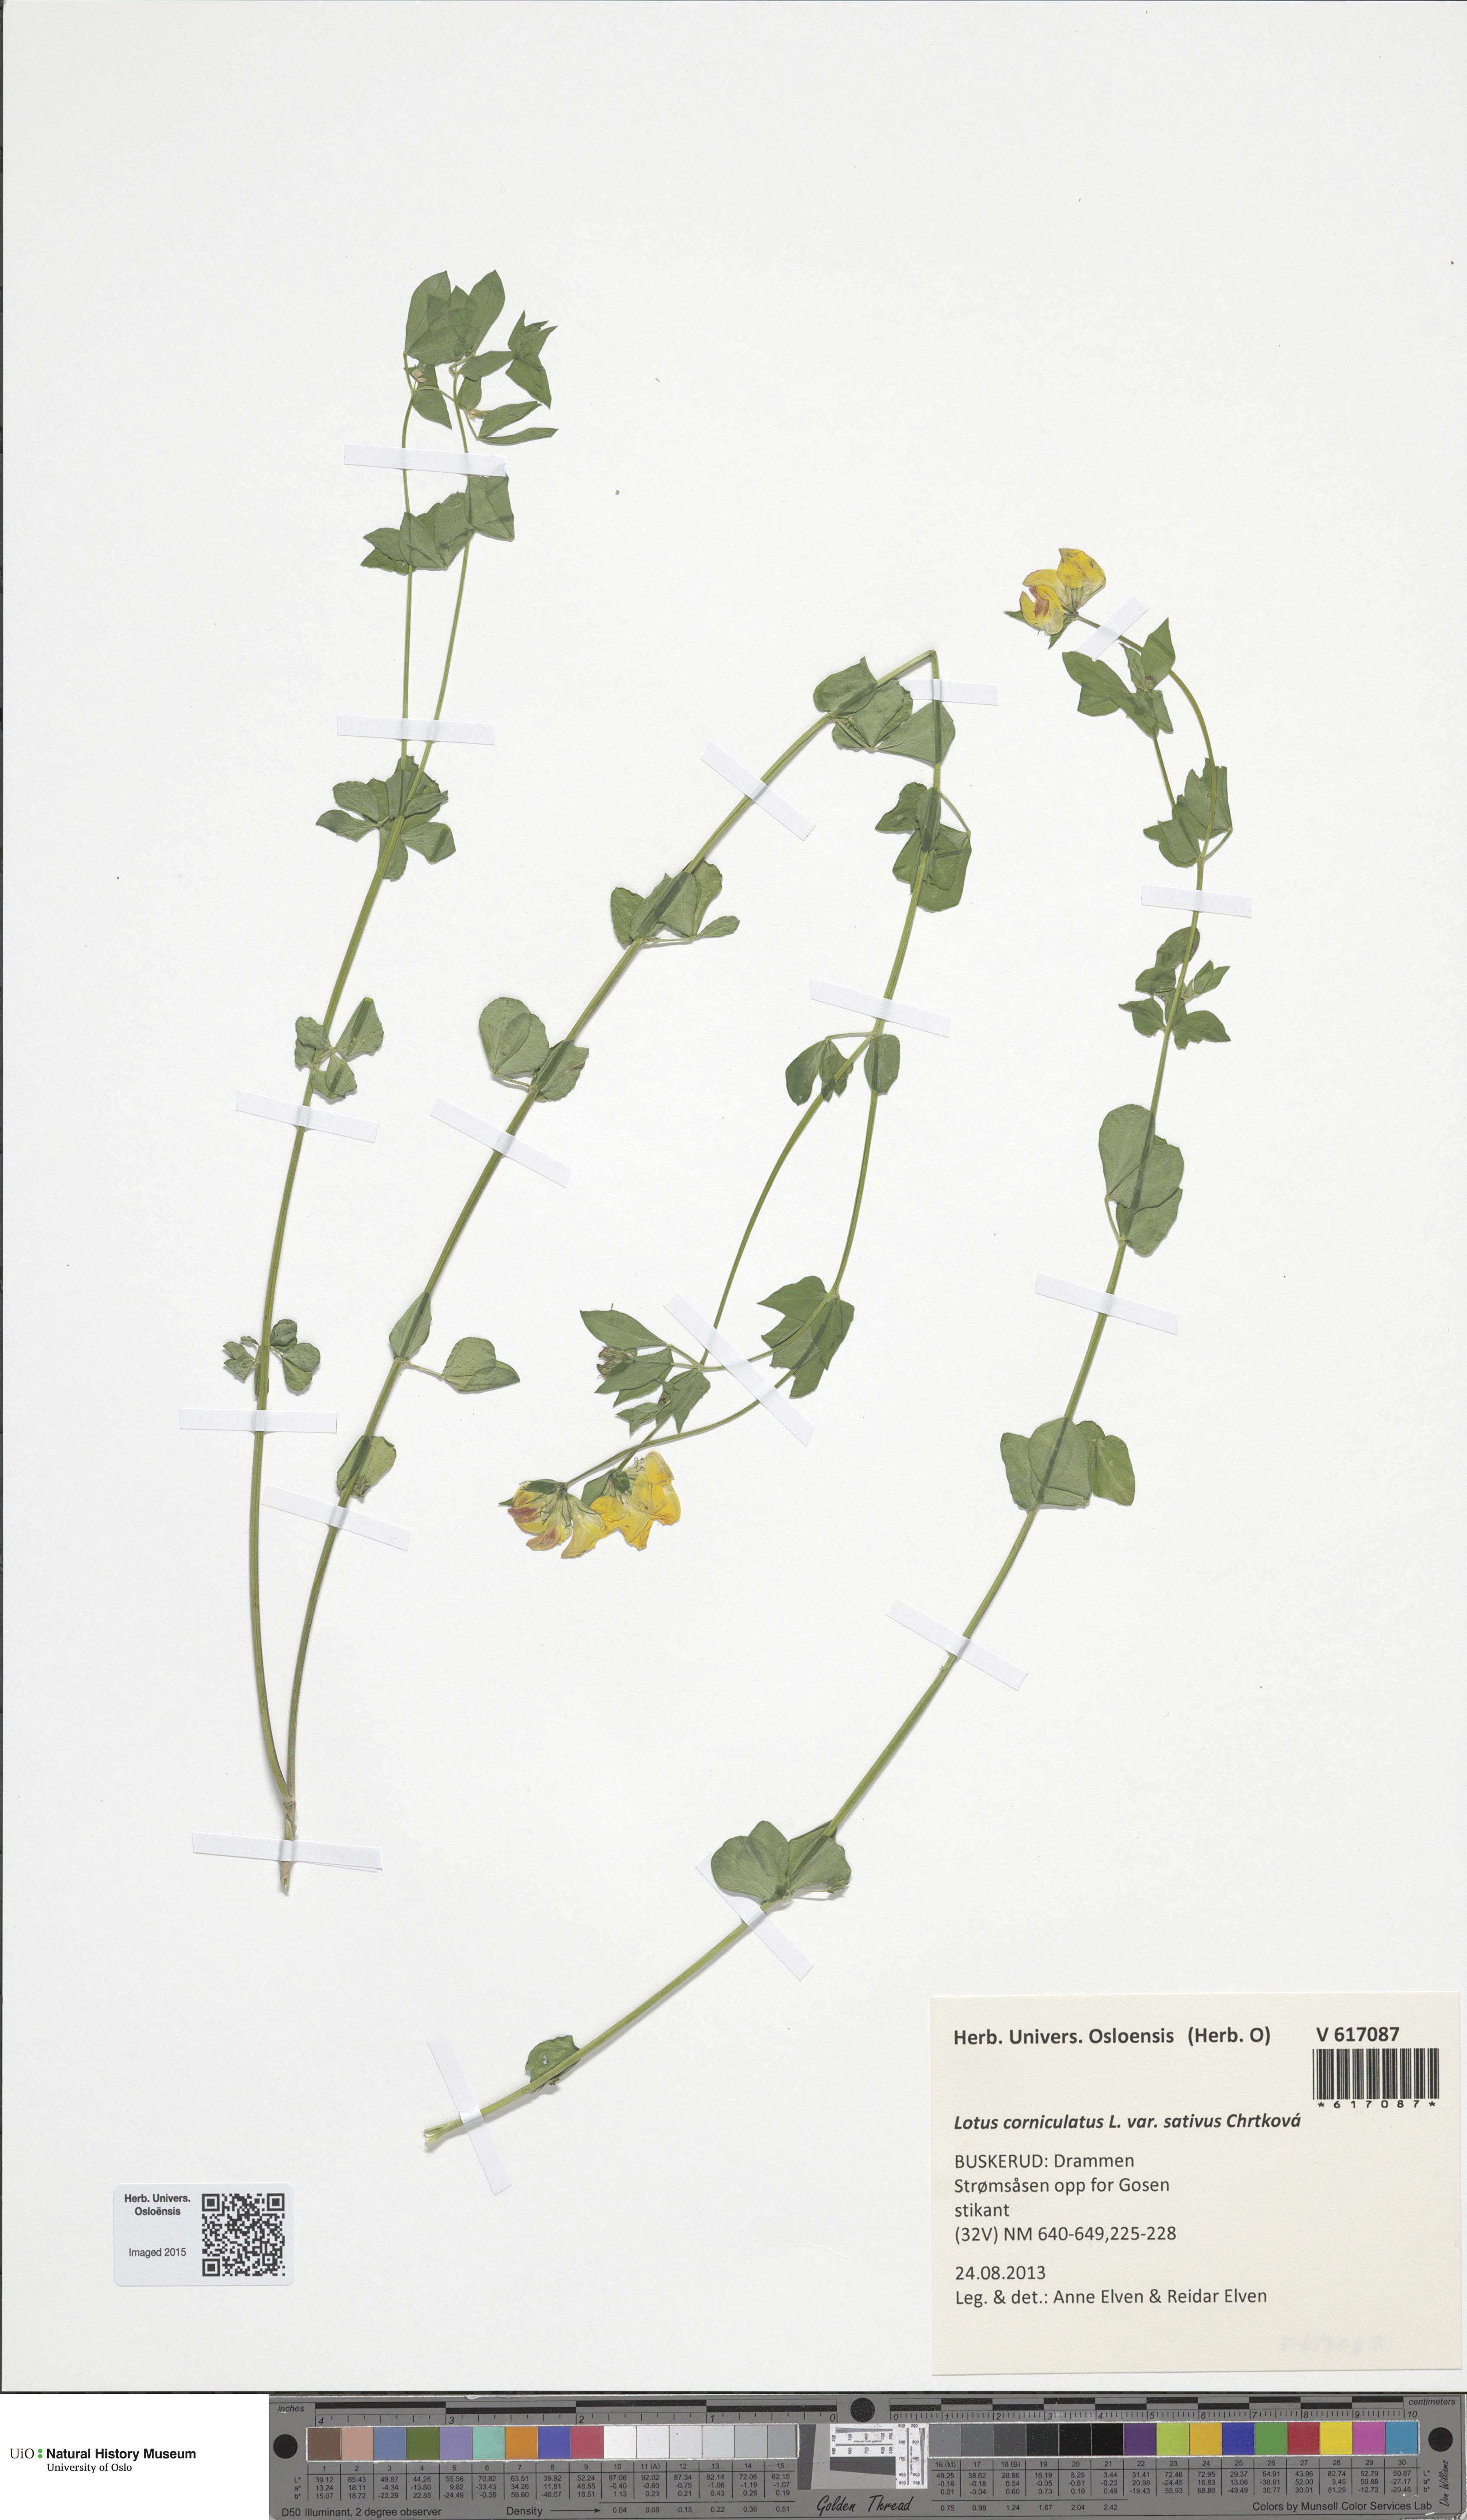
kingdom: Plantae
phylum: Tracheophyta
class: Magnoliopsida
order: Fabales
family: Fabaceae
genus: Lotus
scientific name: Lotus corniculatus
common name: Common bird's-foot-trefoil
